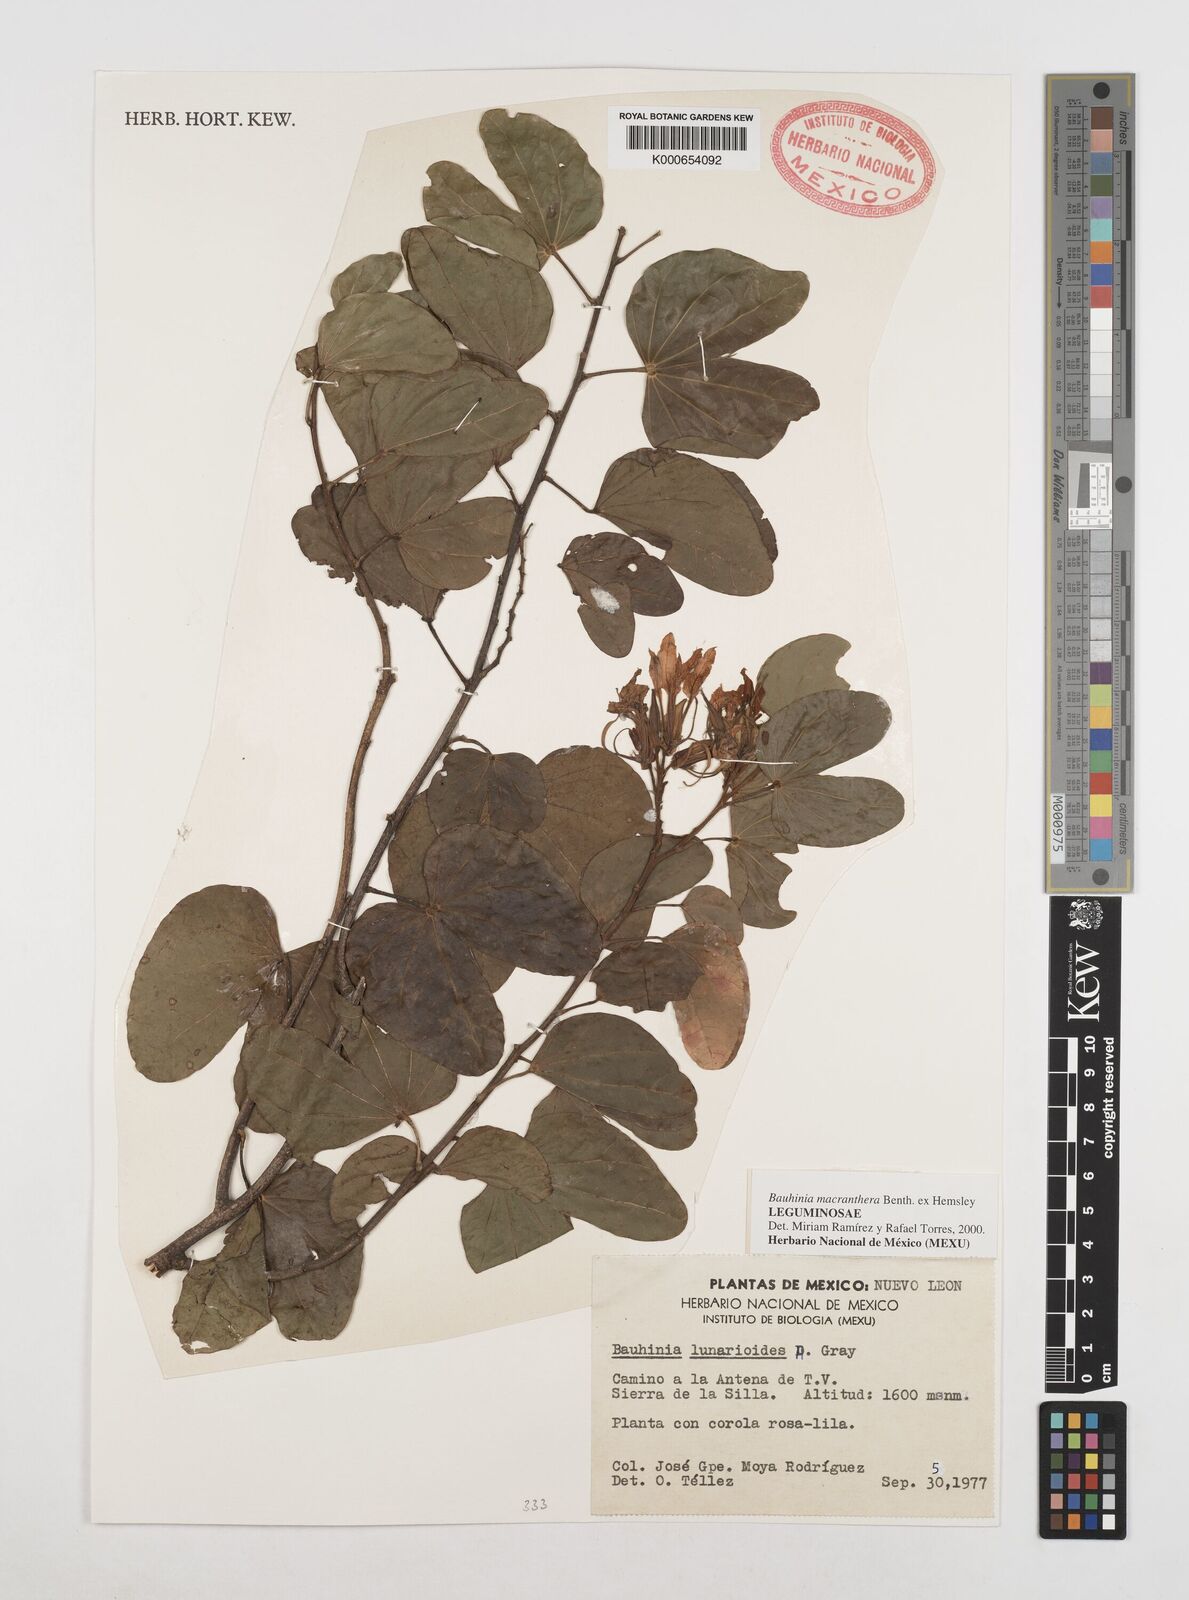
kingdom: Plantae
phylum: Tracheophyta
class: Magnoliopsida
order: Fabales
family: Fabaceae
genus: Bauhinia
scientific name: Bauhinia macranthera
